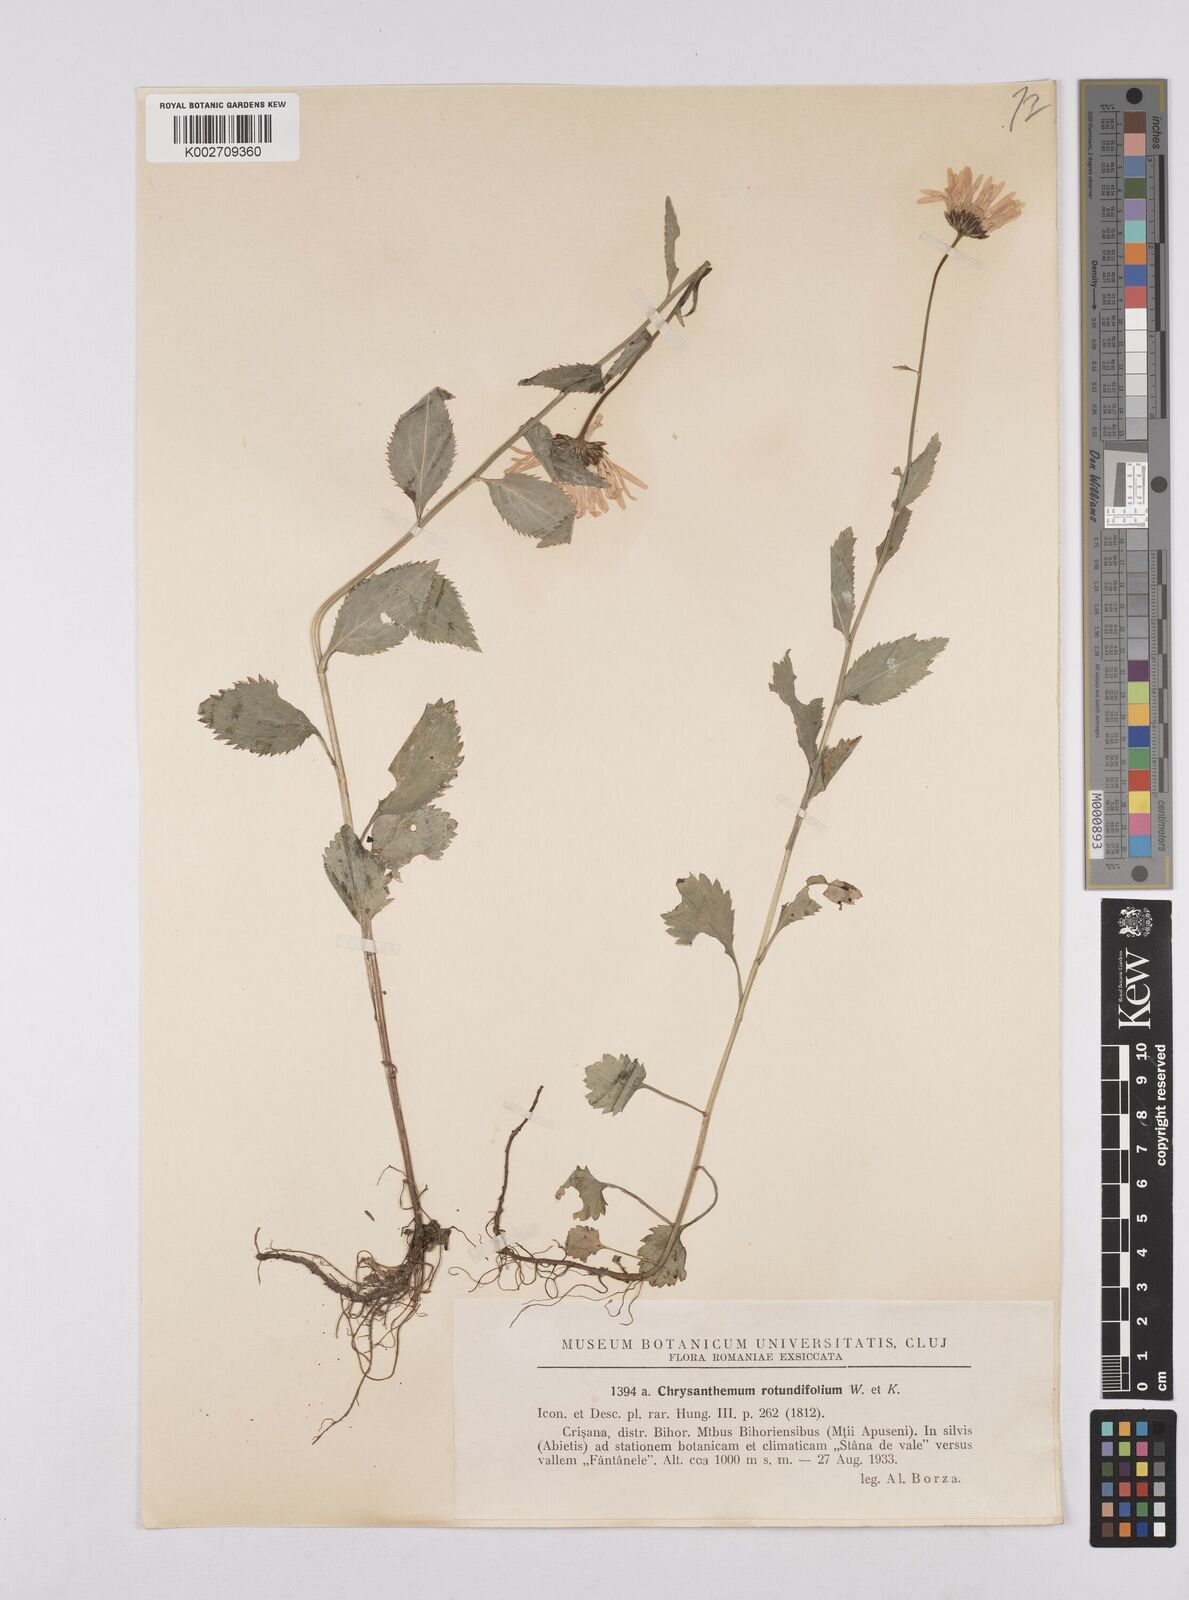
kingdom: Plantae
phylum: Tracheophyta
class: Magnoliopsida
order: Asterales
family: Asteraceae
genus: Leucanthemum
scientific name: Leucanthemum rotundifolium
